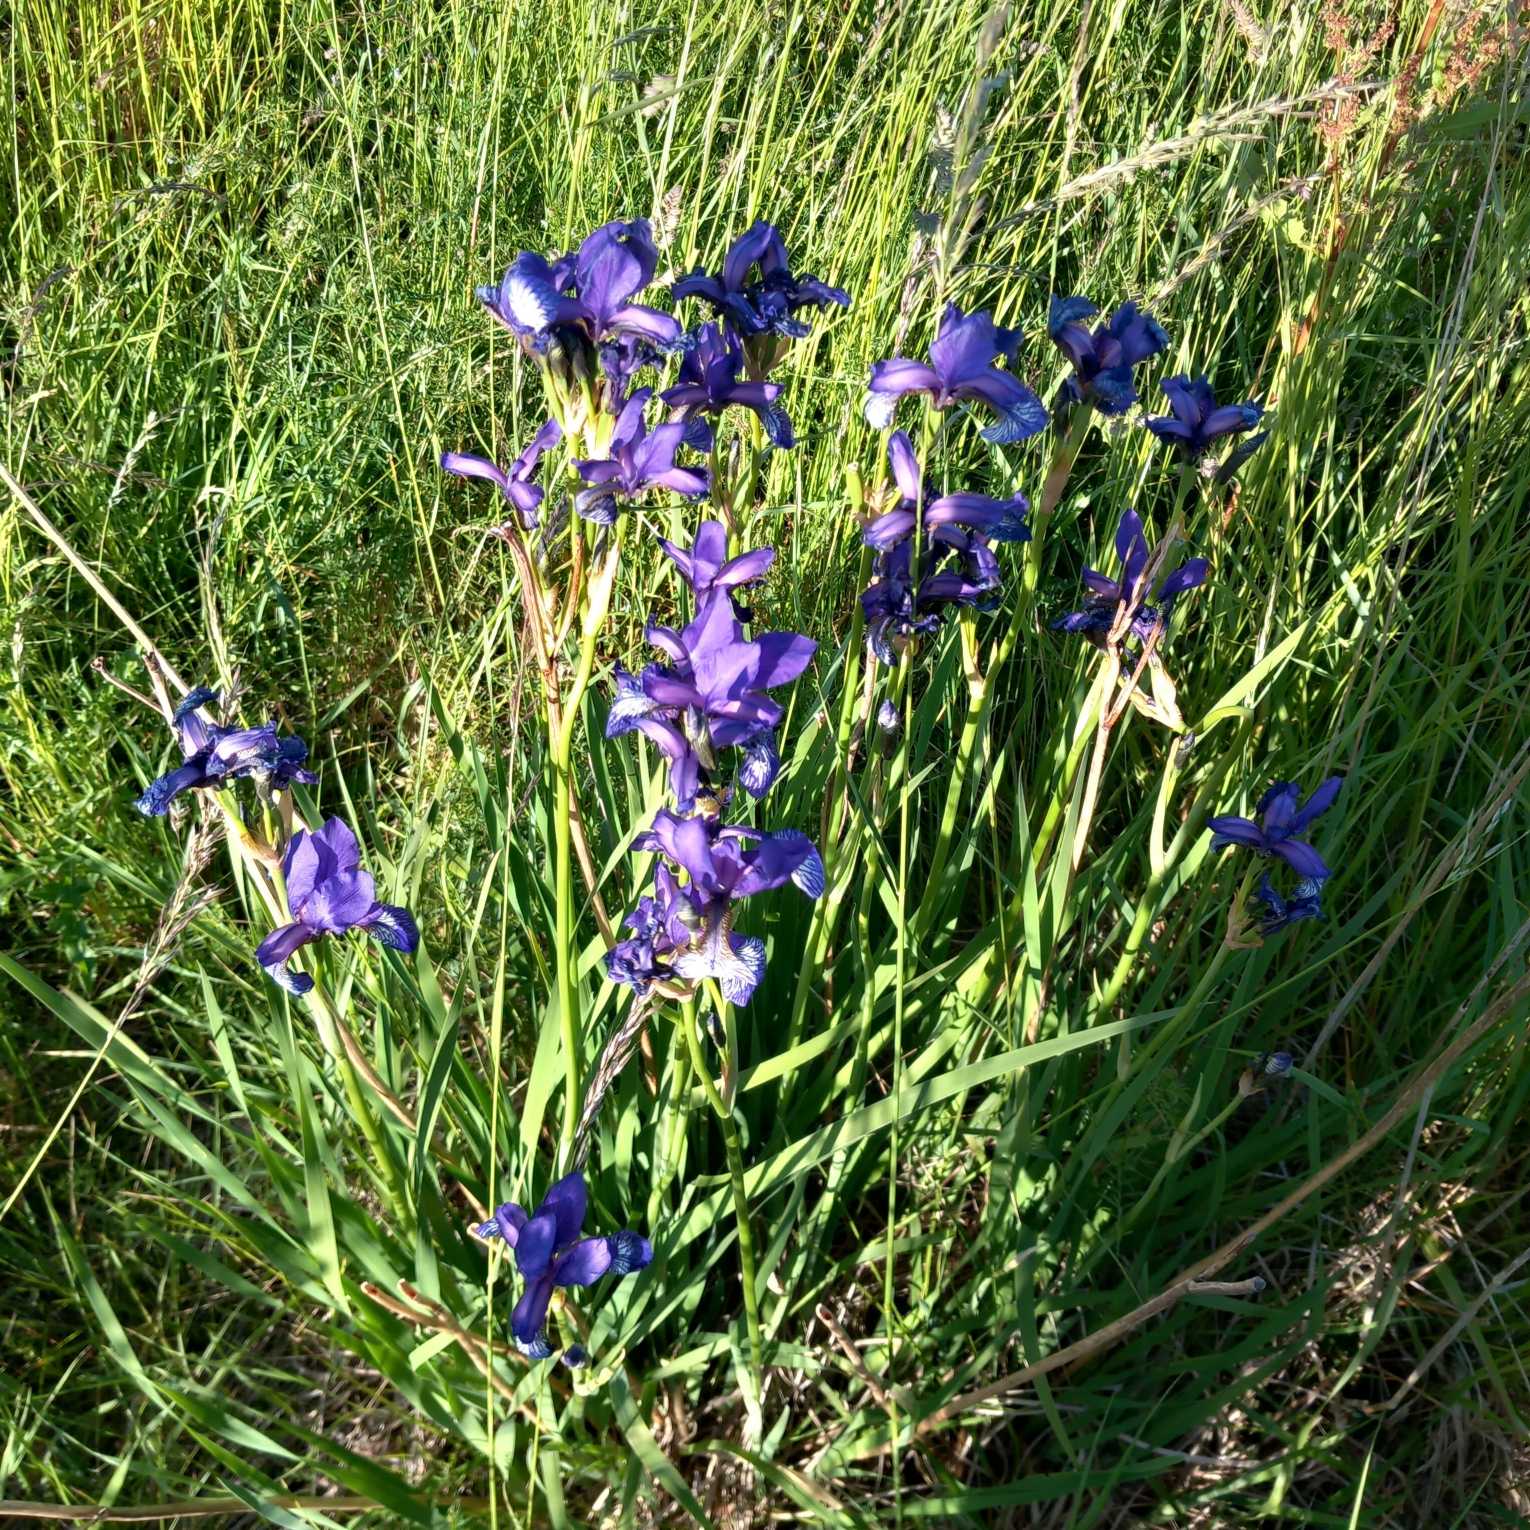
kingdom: Plantae
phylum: Tracheophyta
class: Liliopsida
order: Asparagales
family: Iridaceae
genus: Iris
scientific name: Iris sibirica
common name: Sibirisk iris
